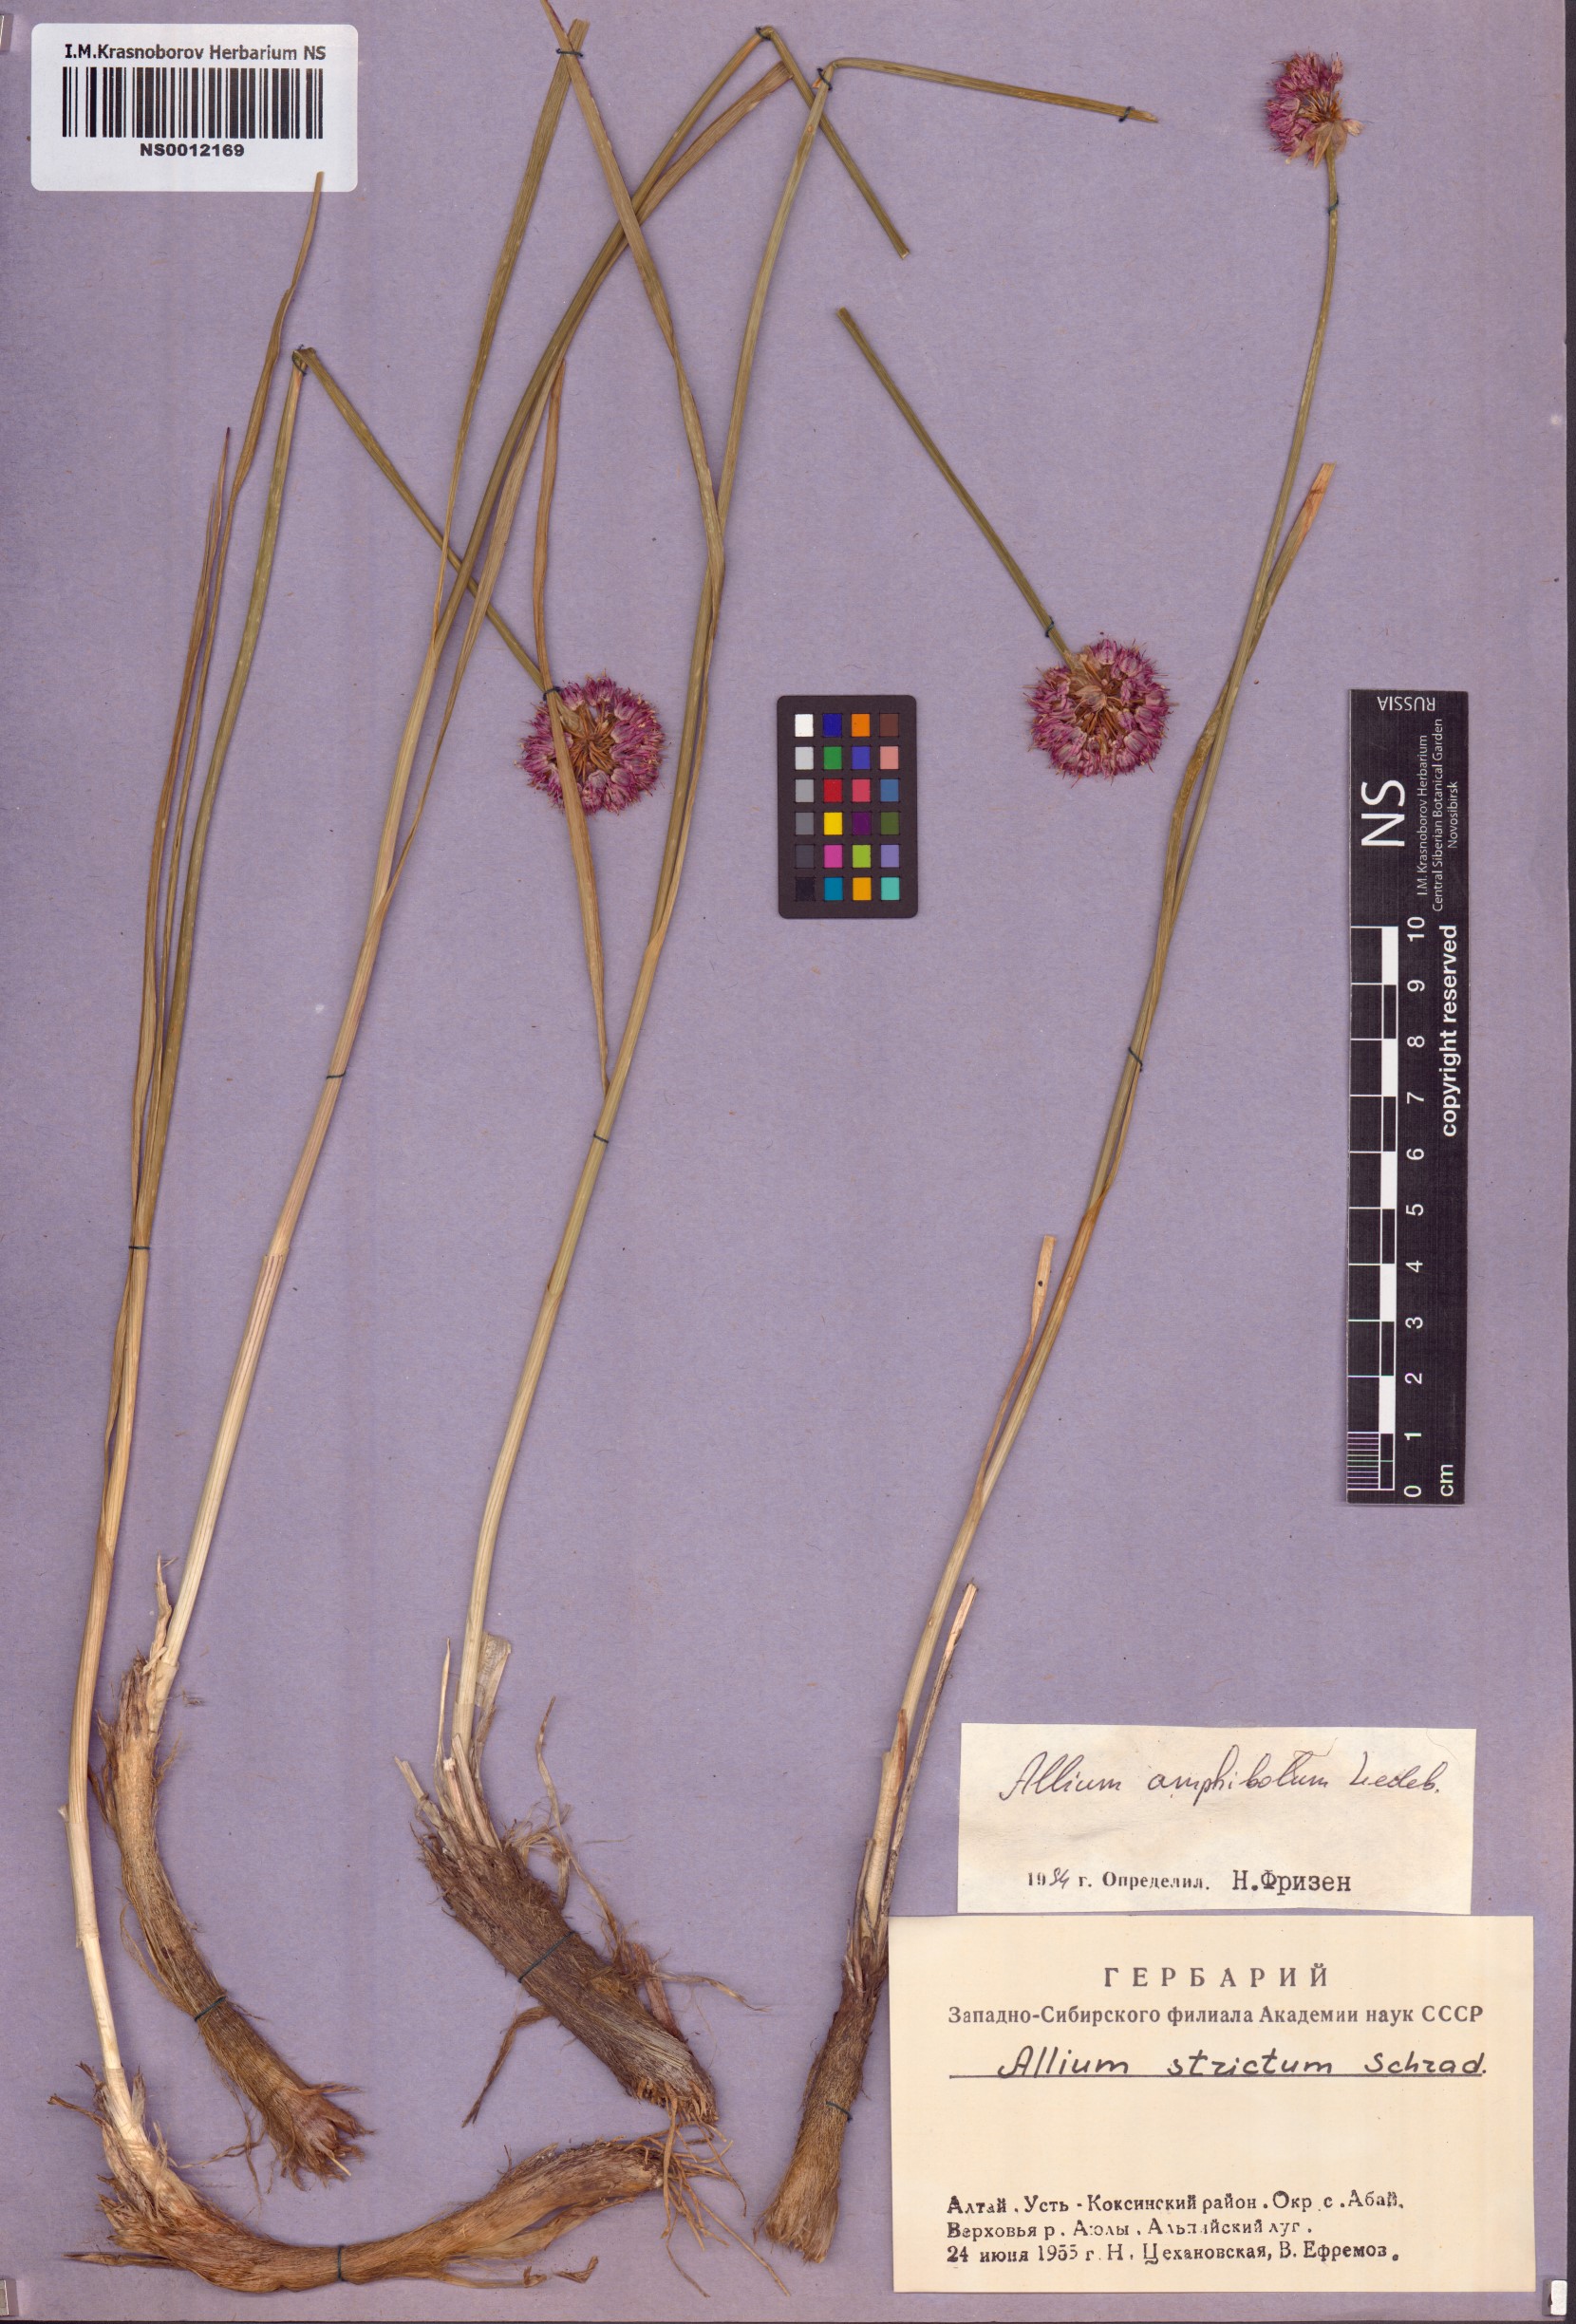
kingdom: Plantae
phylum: Tracheophyta
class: Liliopsida
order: Asparagales
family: Amaryllidaceae
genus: Allium
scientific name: Allium amphibolum
